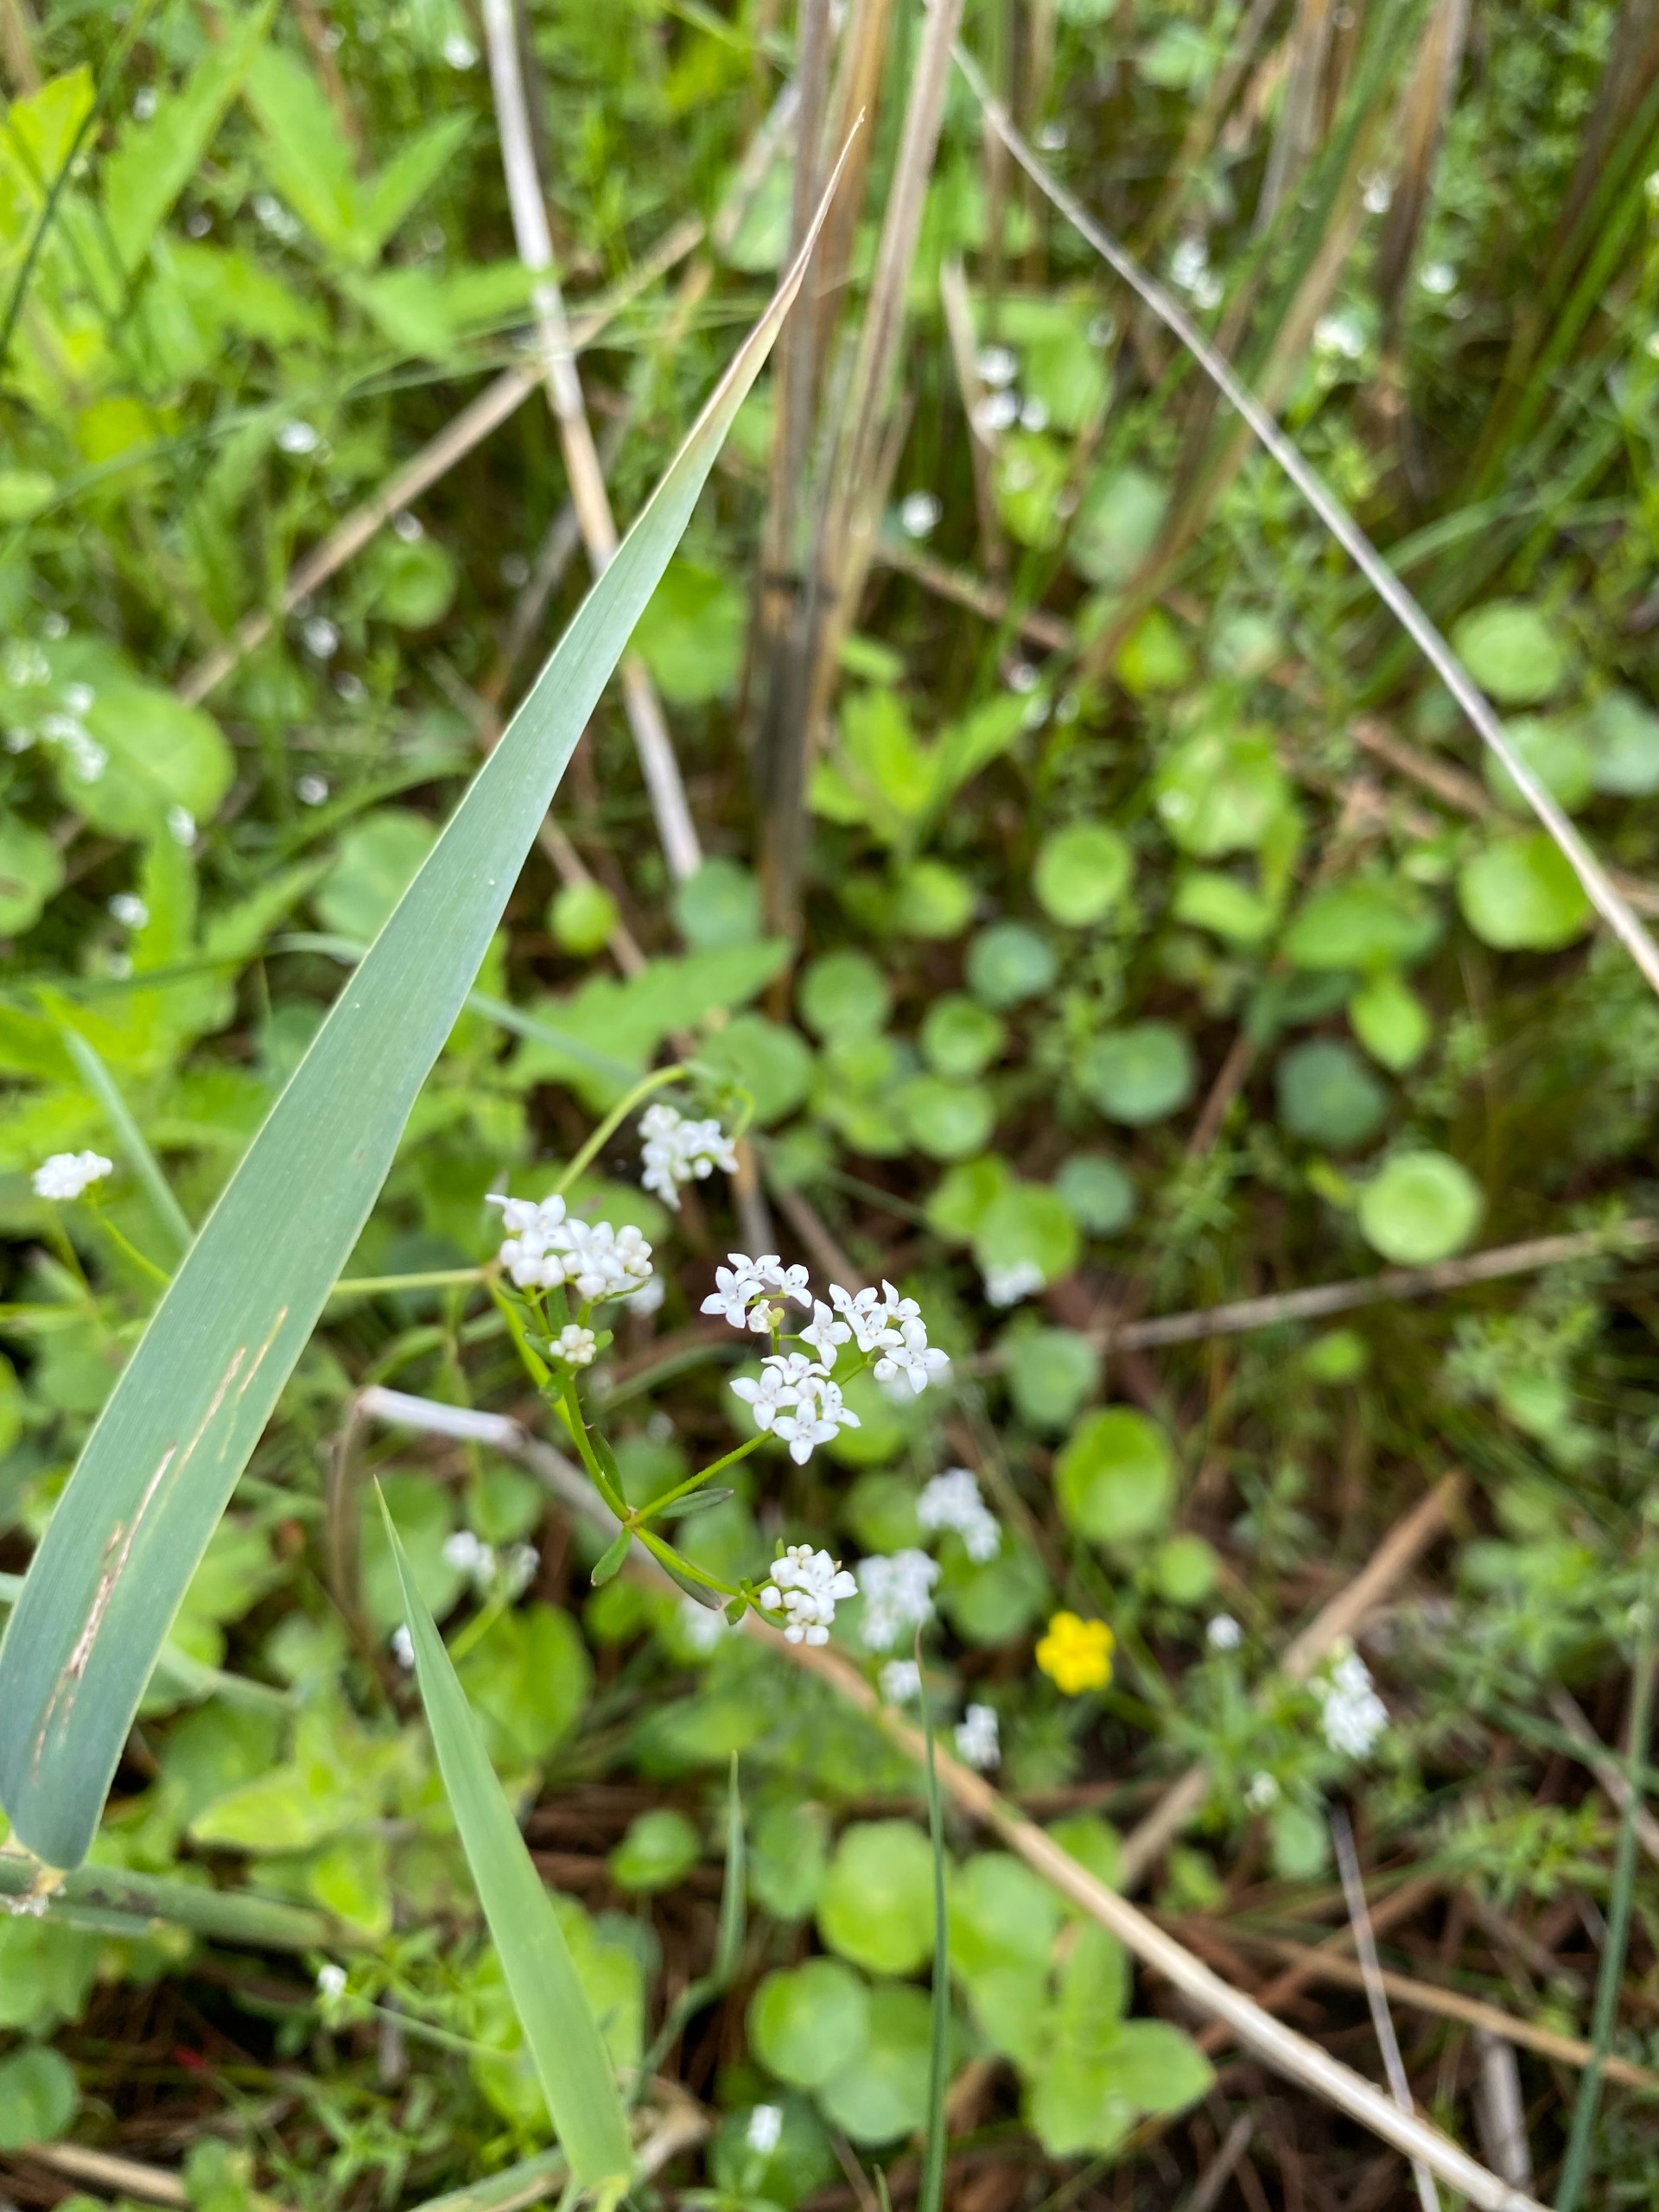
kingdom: Plantae
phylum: Tracheophyta
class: Magnoliopsida
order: Gentianales
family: Rubiaceae
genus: Galium
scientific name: Galium palustre
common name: Kær-snerre
